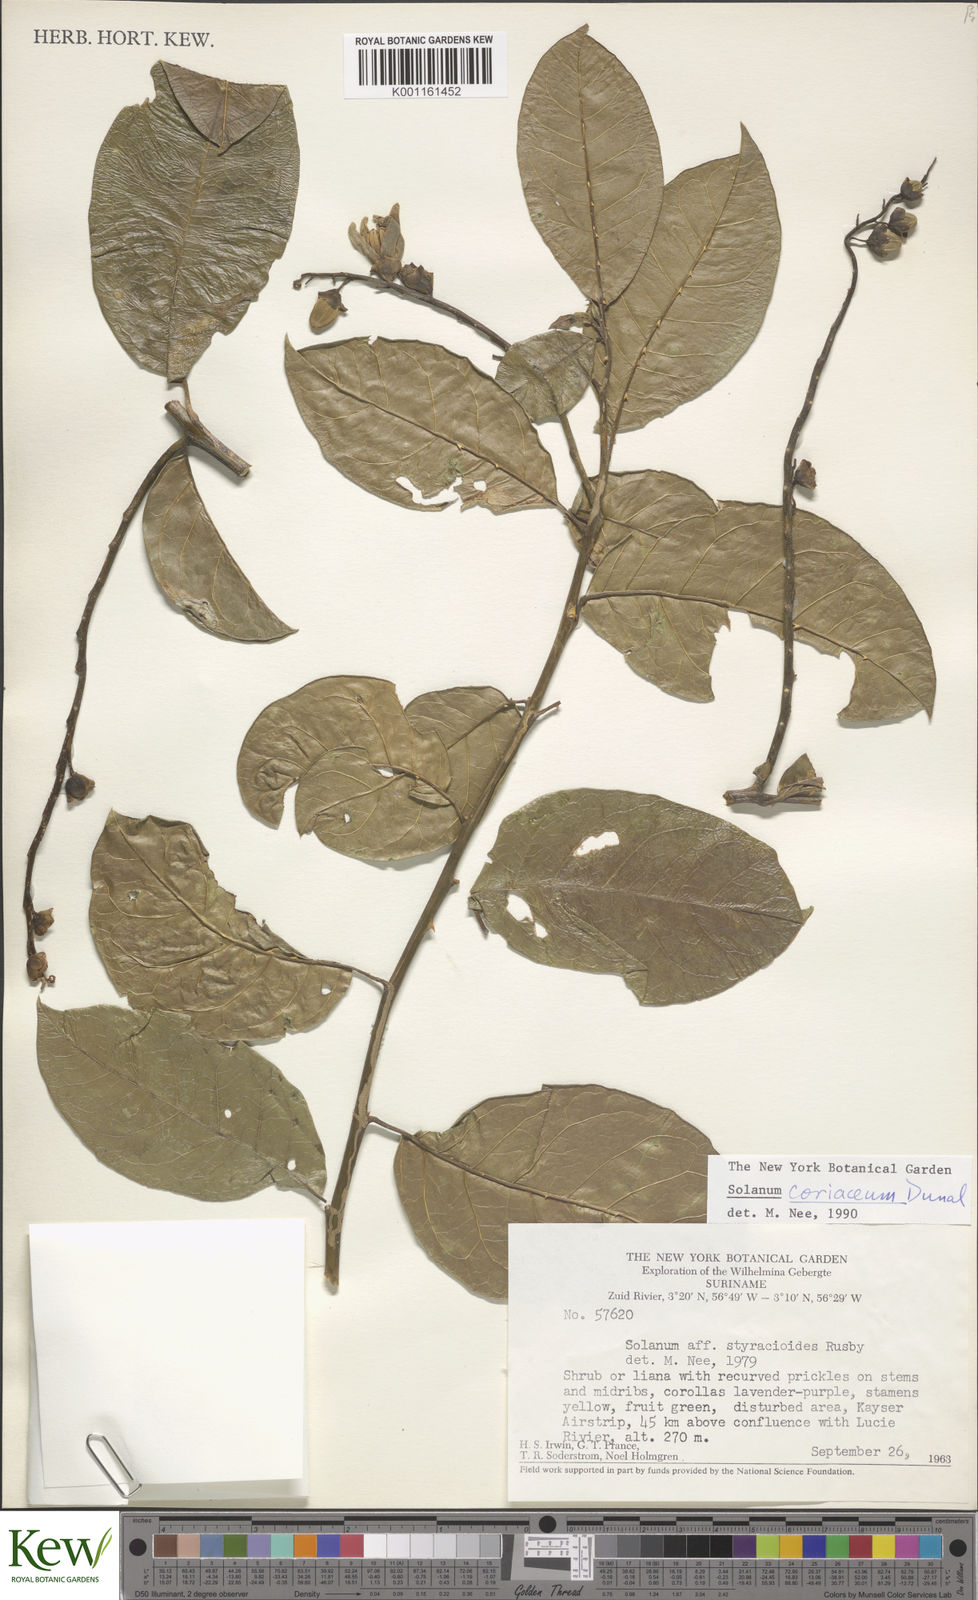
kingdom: Plantae
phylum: Tracheophyta
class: Magnoliopsida
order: Solanales
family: Solanaceae
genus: Solanum
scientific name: Solanum coriaceum
